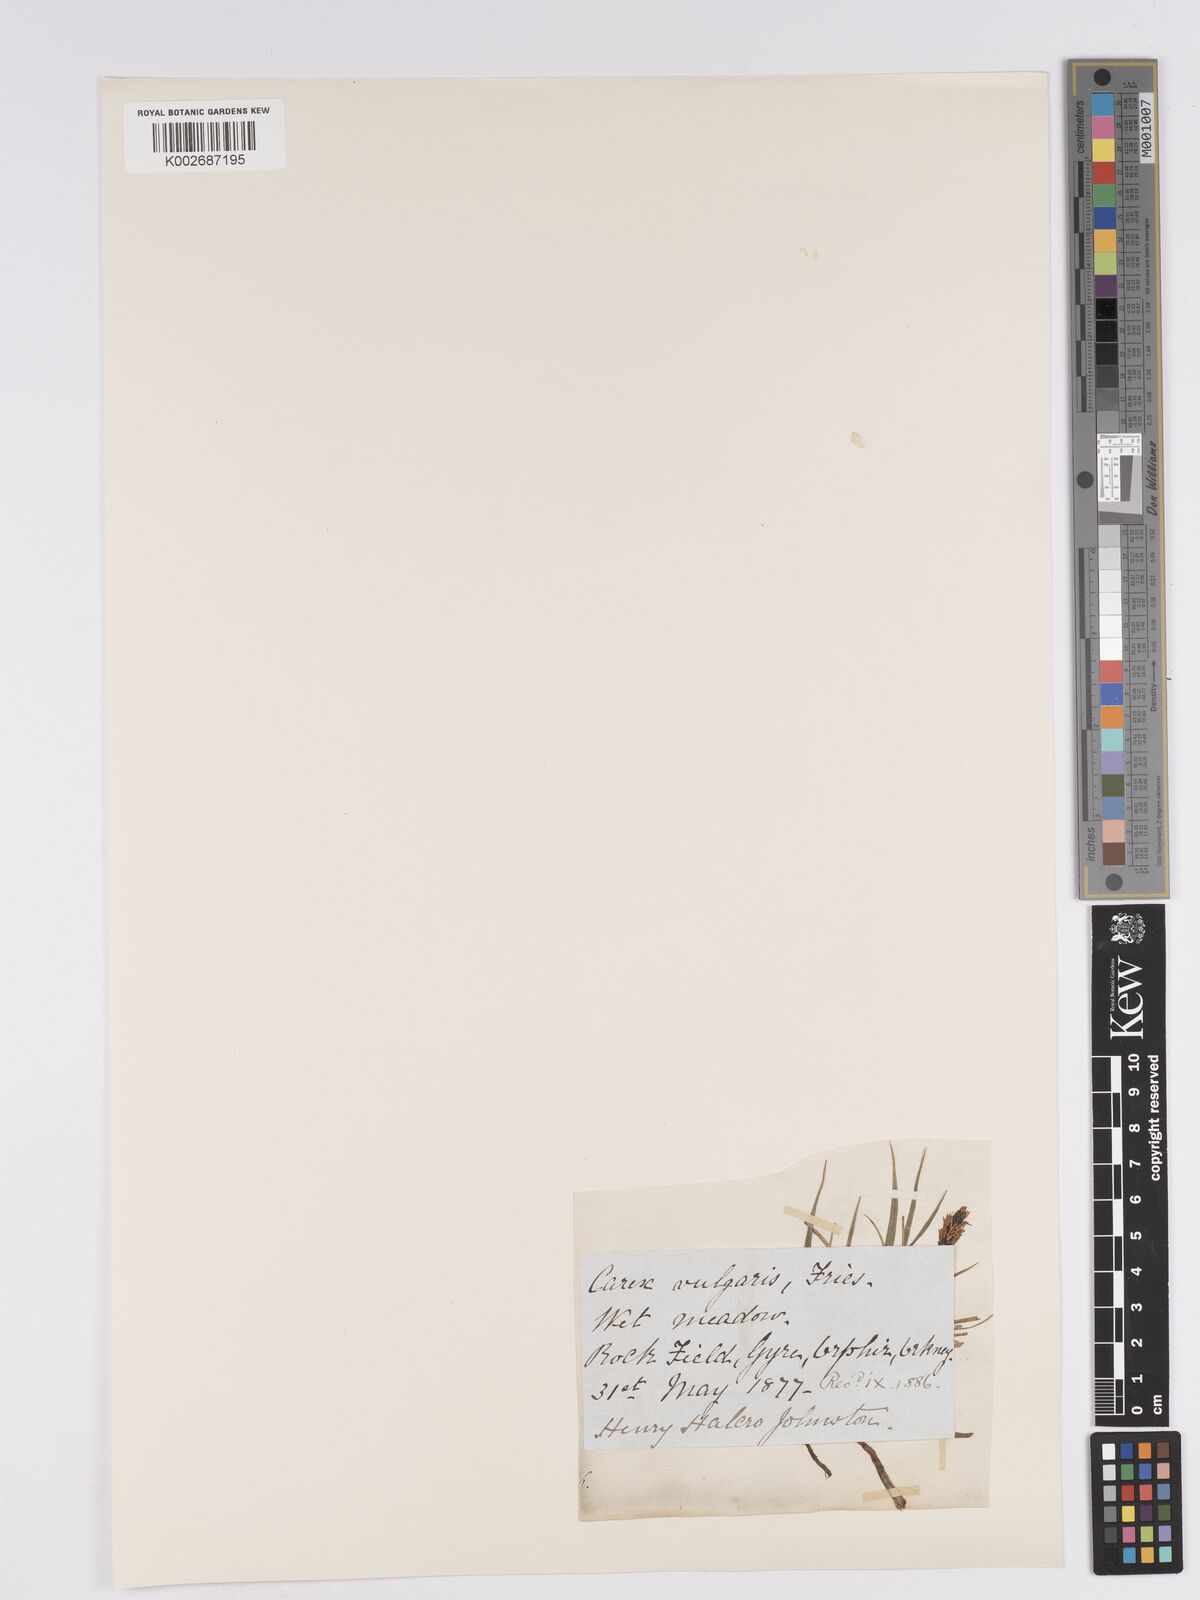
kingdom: Plantae
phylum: Tracheophyta
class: Liliopsida
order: Poales
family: Cyperaceae
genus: Carex
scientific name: Carex nigra
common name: Common sedge
